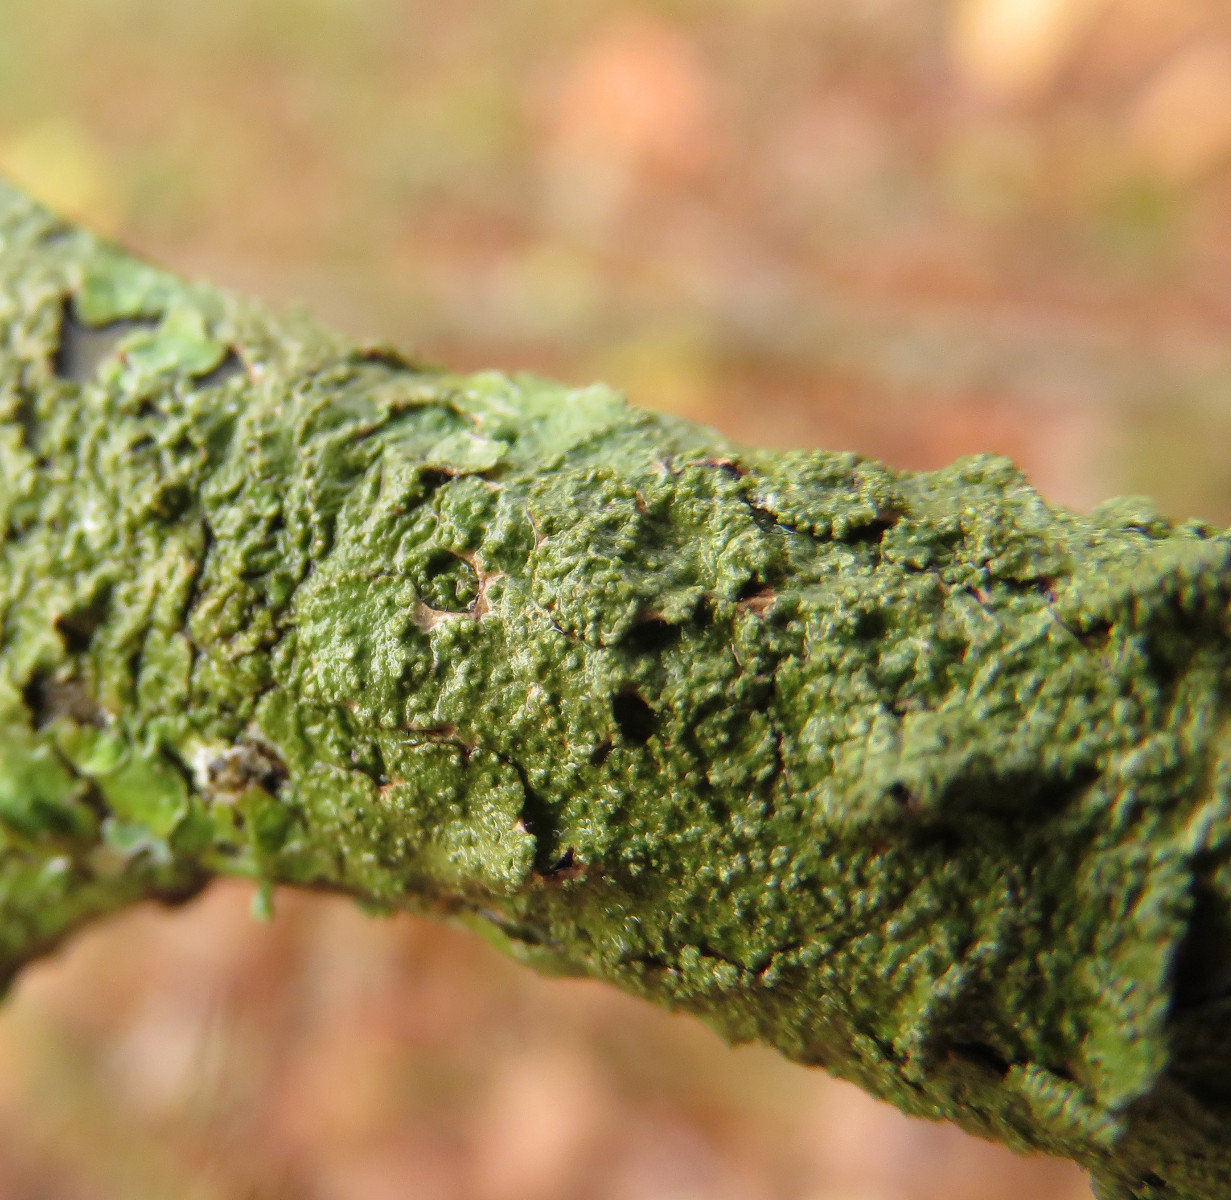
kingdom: Fungi
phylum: Ascomycota
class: Lecanoromycetes
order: Lecanorales
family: Parmeliaceae
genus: Melanelixia
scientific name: Melanelixia subaurifera
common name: guldpudret skållav
